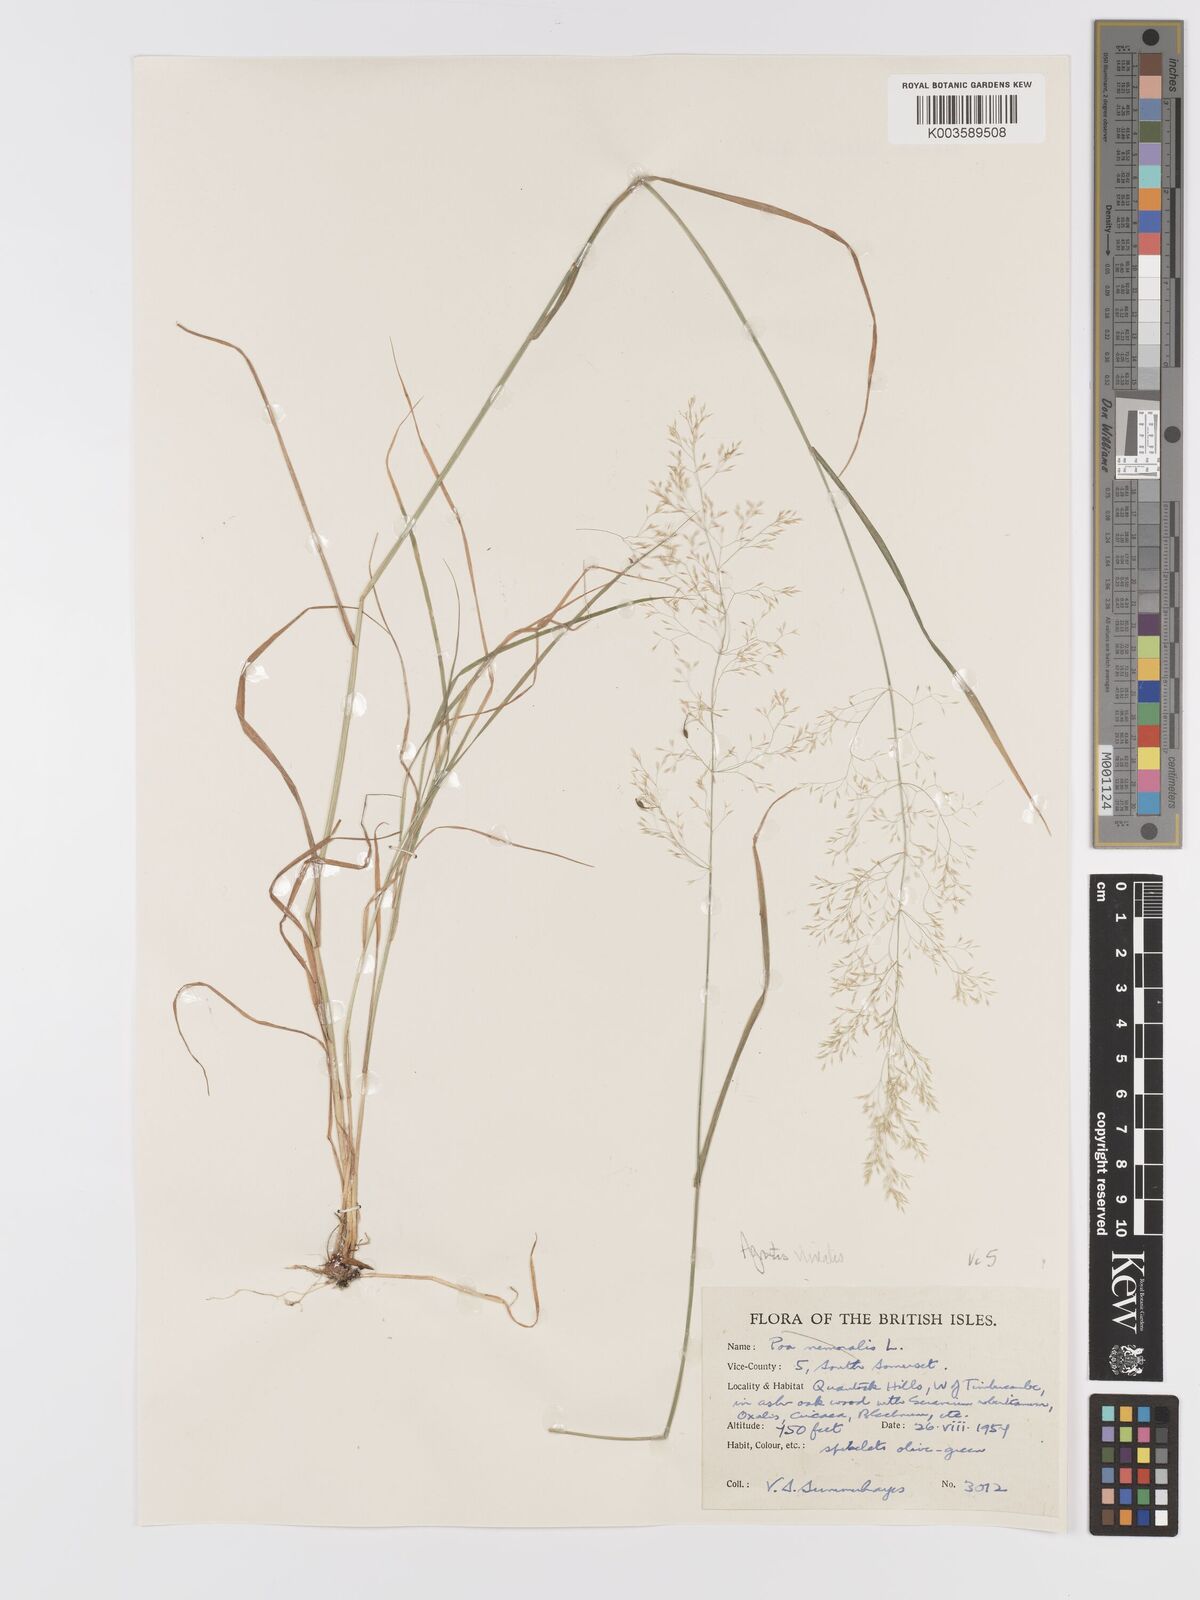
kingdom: Plantae
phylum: Tracheophyta
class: Liliopsida
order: Poales
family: Poaceae
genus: Agrostis
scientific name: Agrostis
